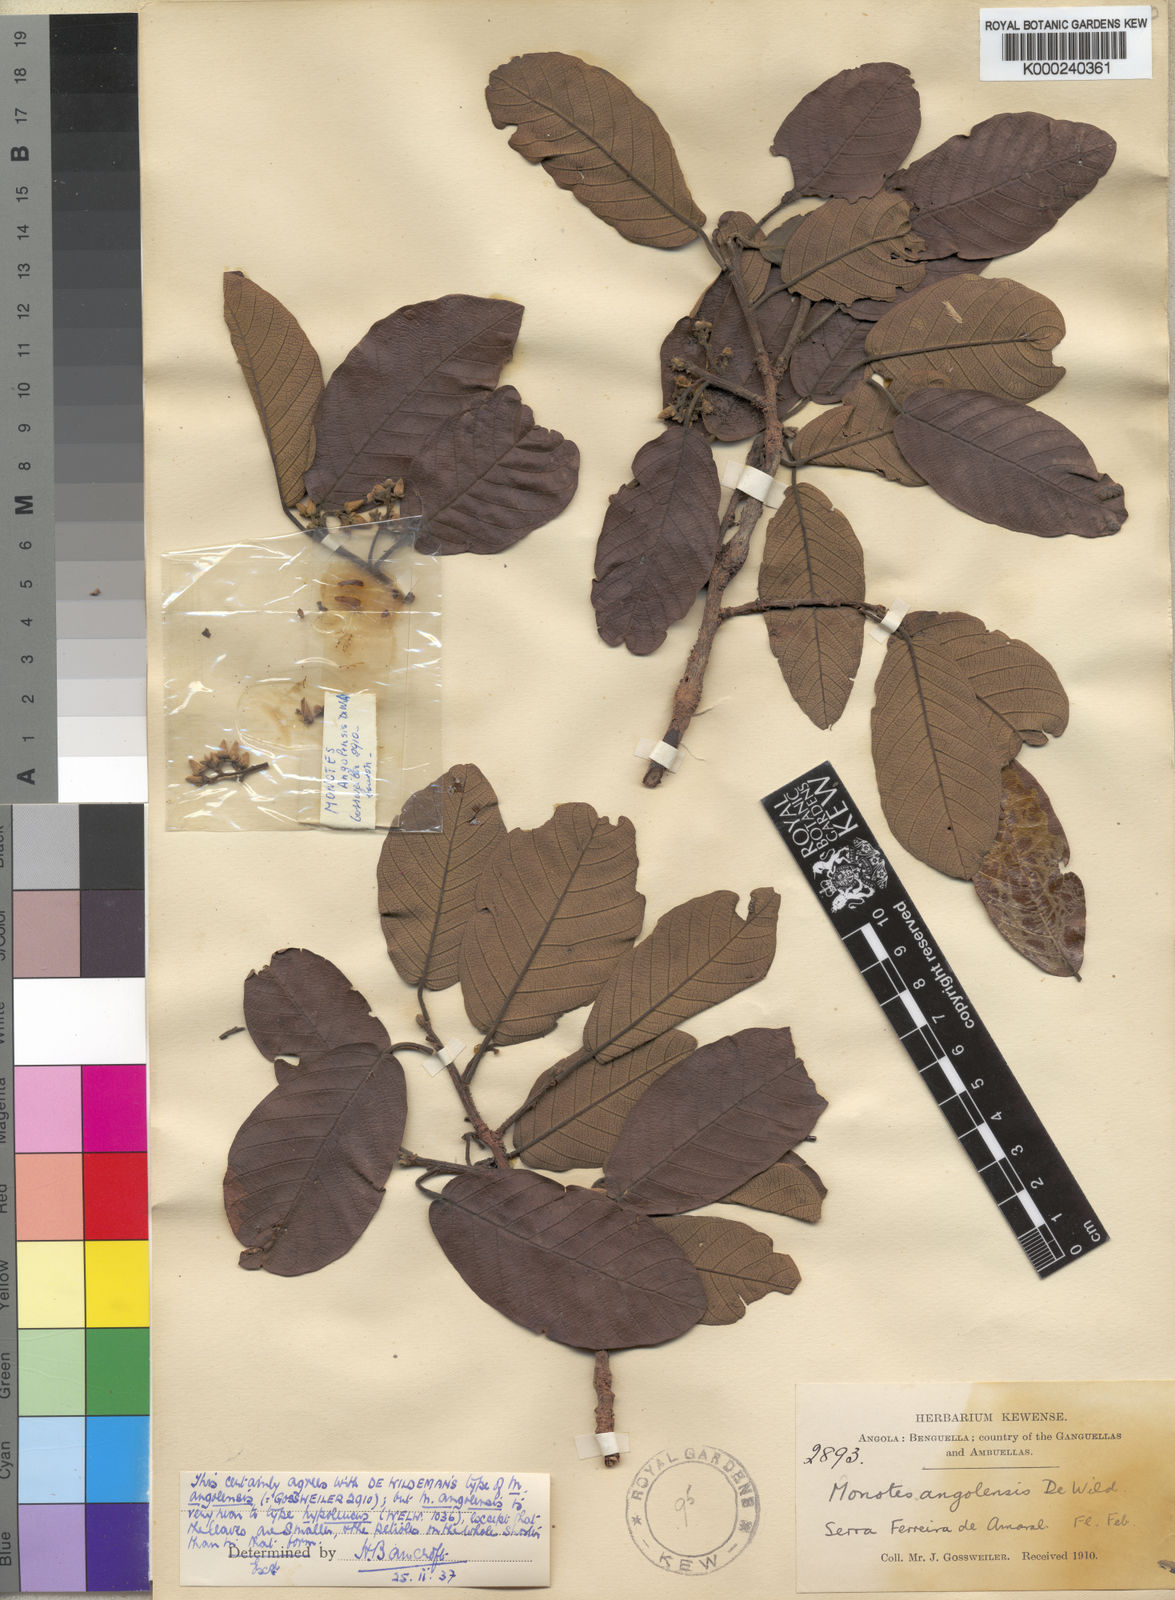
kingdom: Plantae
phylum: Tracheophyta
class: Magnoliopsida
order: Malvales
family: Dipterocarpaceae
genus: Monotes
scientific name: Monotes hypoleucus
